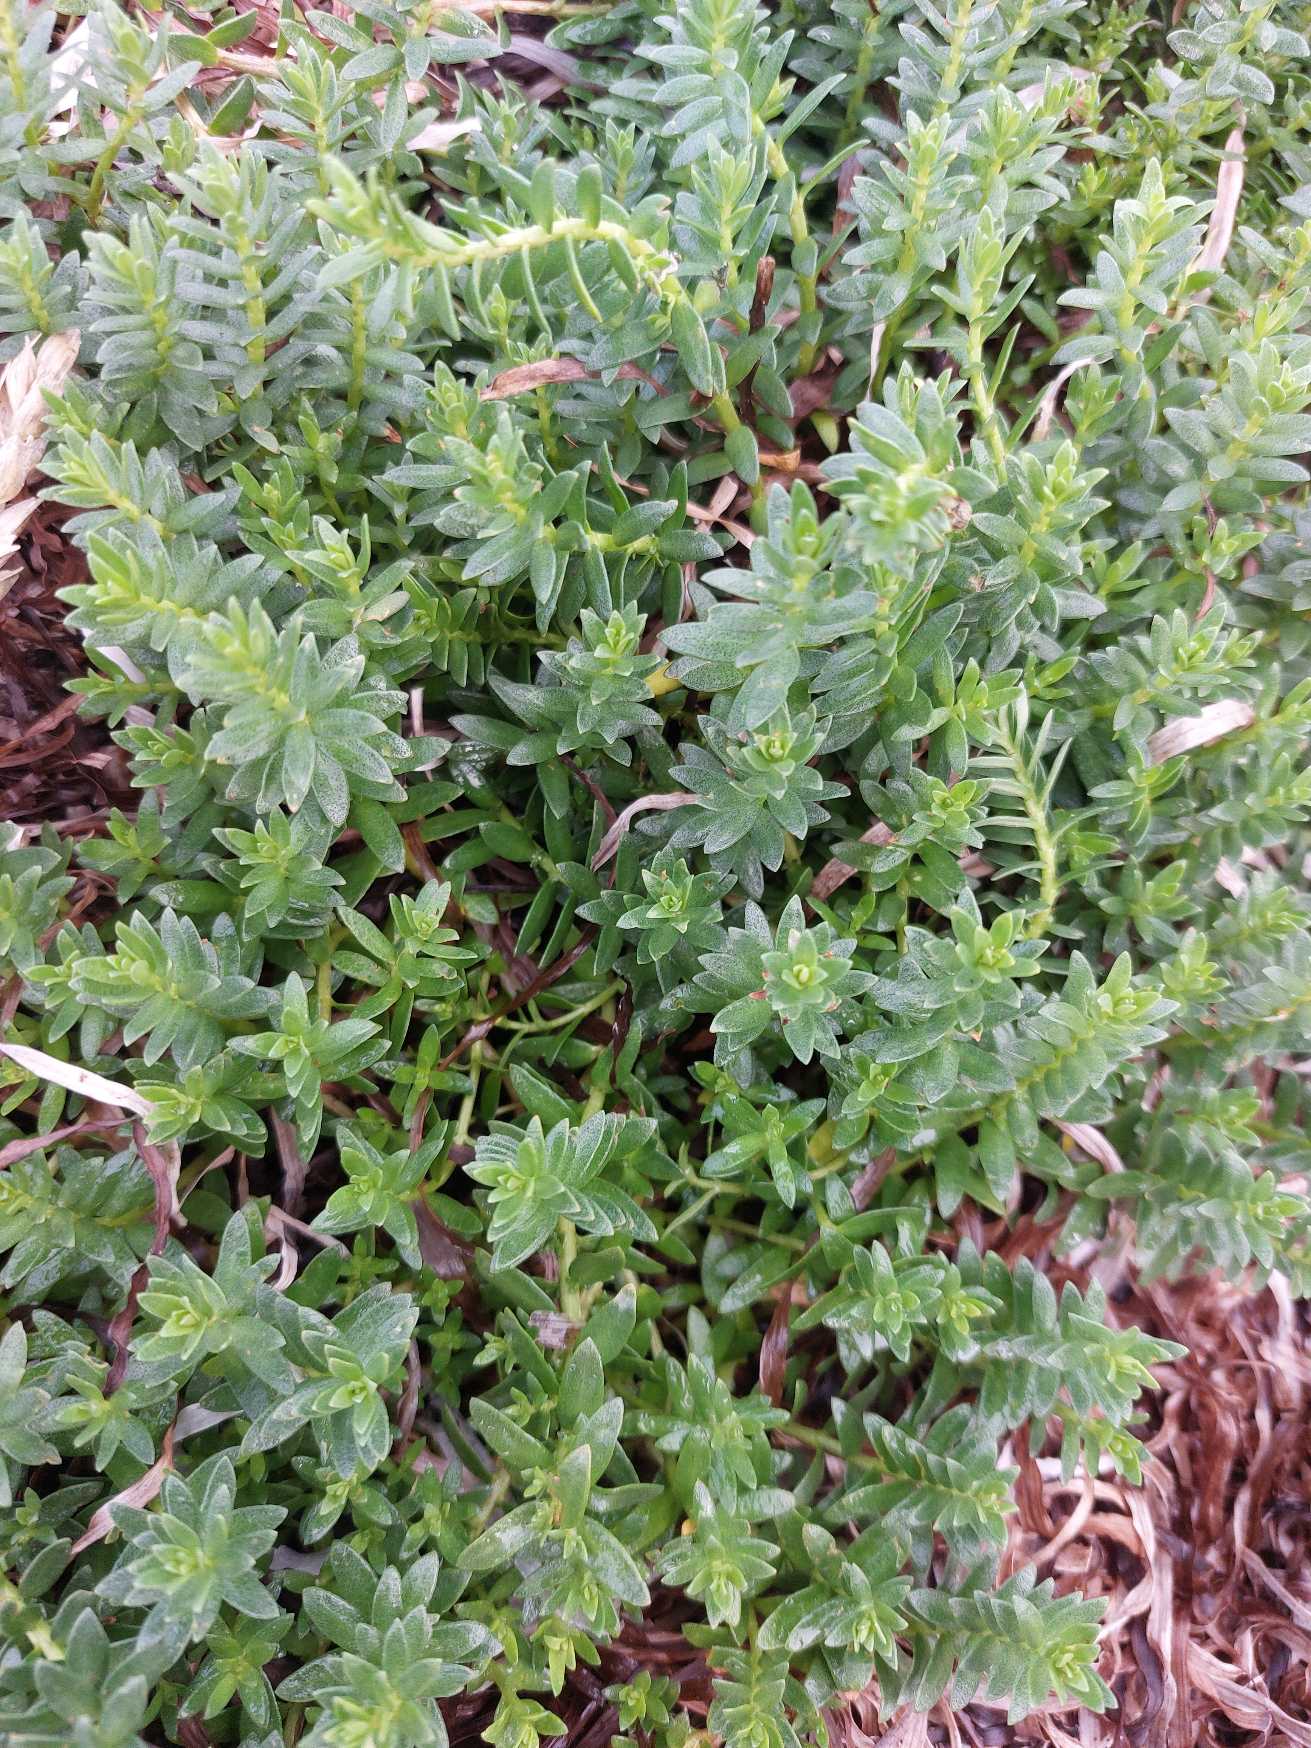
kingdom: Plantae
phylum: Tracheophyta
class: Magnoliopsida
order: Ericales
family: Primulaceae
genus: Lysimachia
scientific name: Lysimachia maritima
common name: Sandkryb
